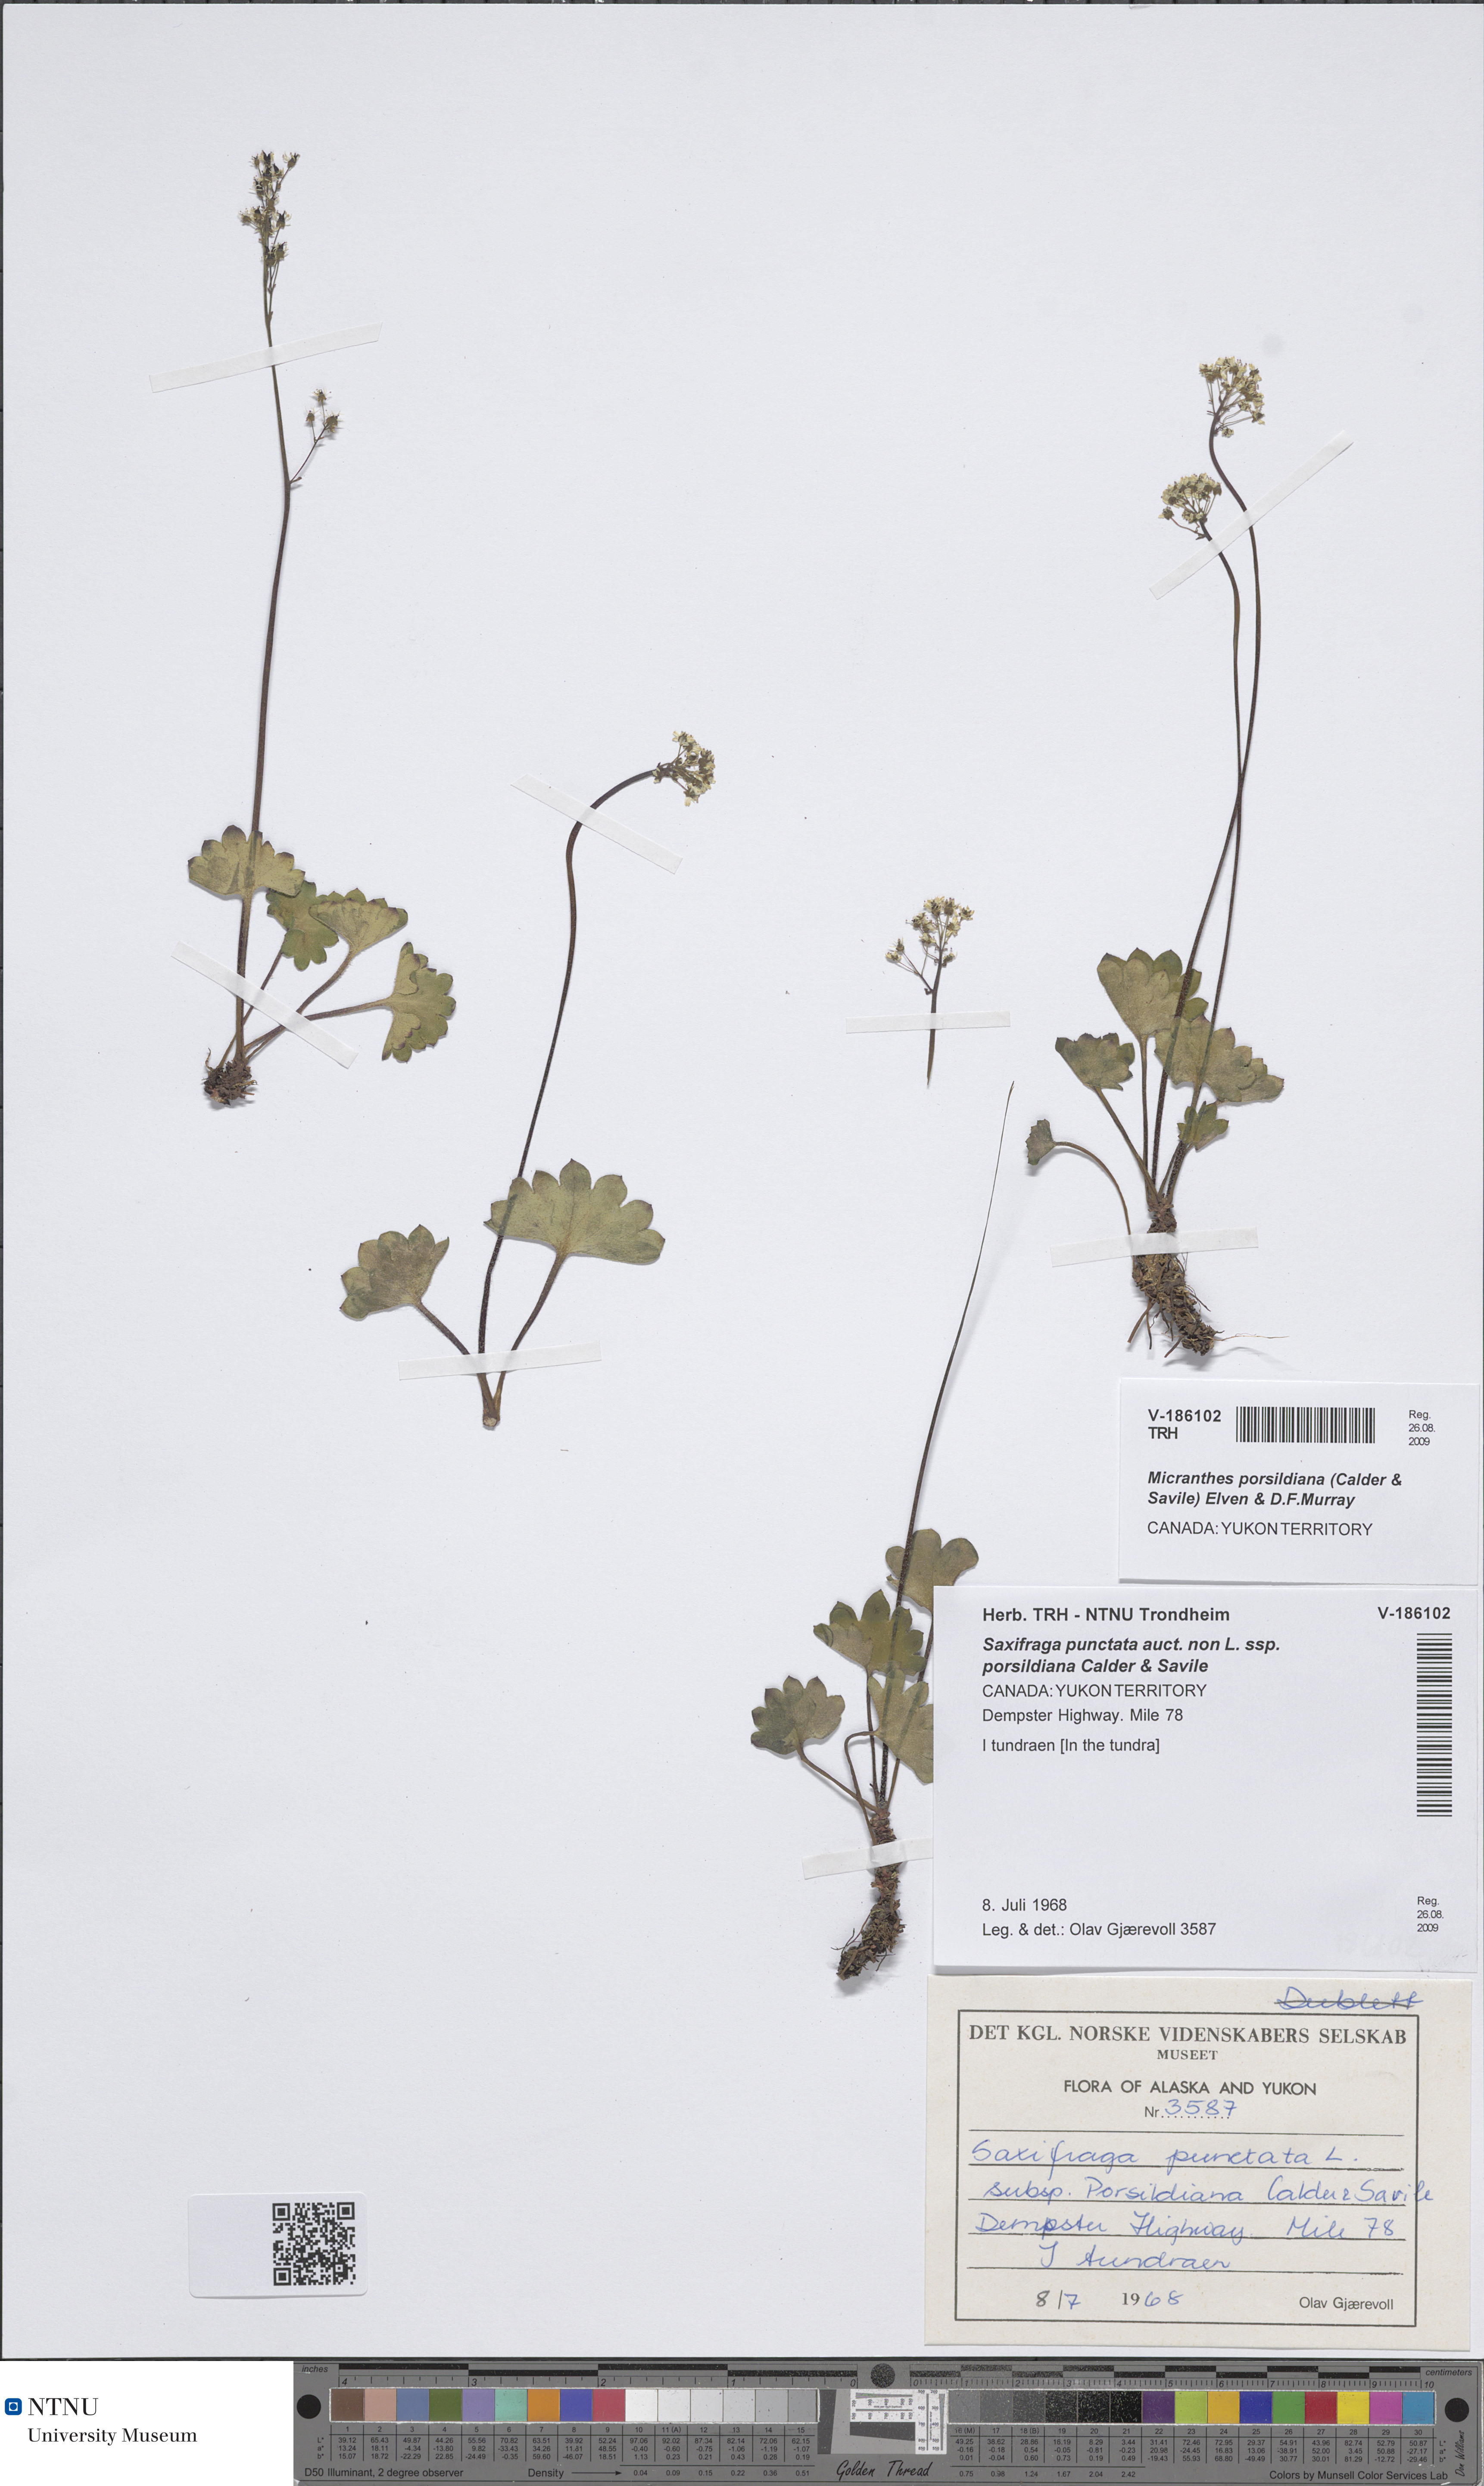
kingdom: Plantae
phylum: Tracheophyta
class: Magnoliopsida
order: Saxifragales
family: Saxifragaceae
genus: Micranthes
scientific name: Micranthes nelsoniana
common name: Nelson's saxifrage
